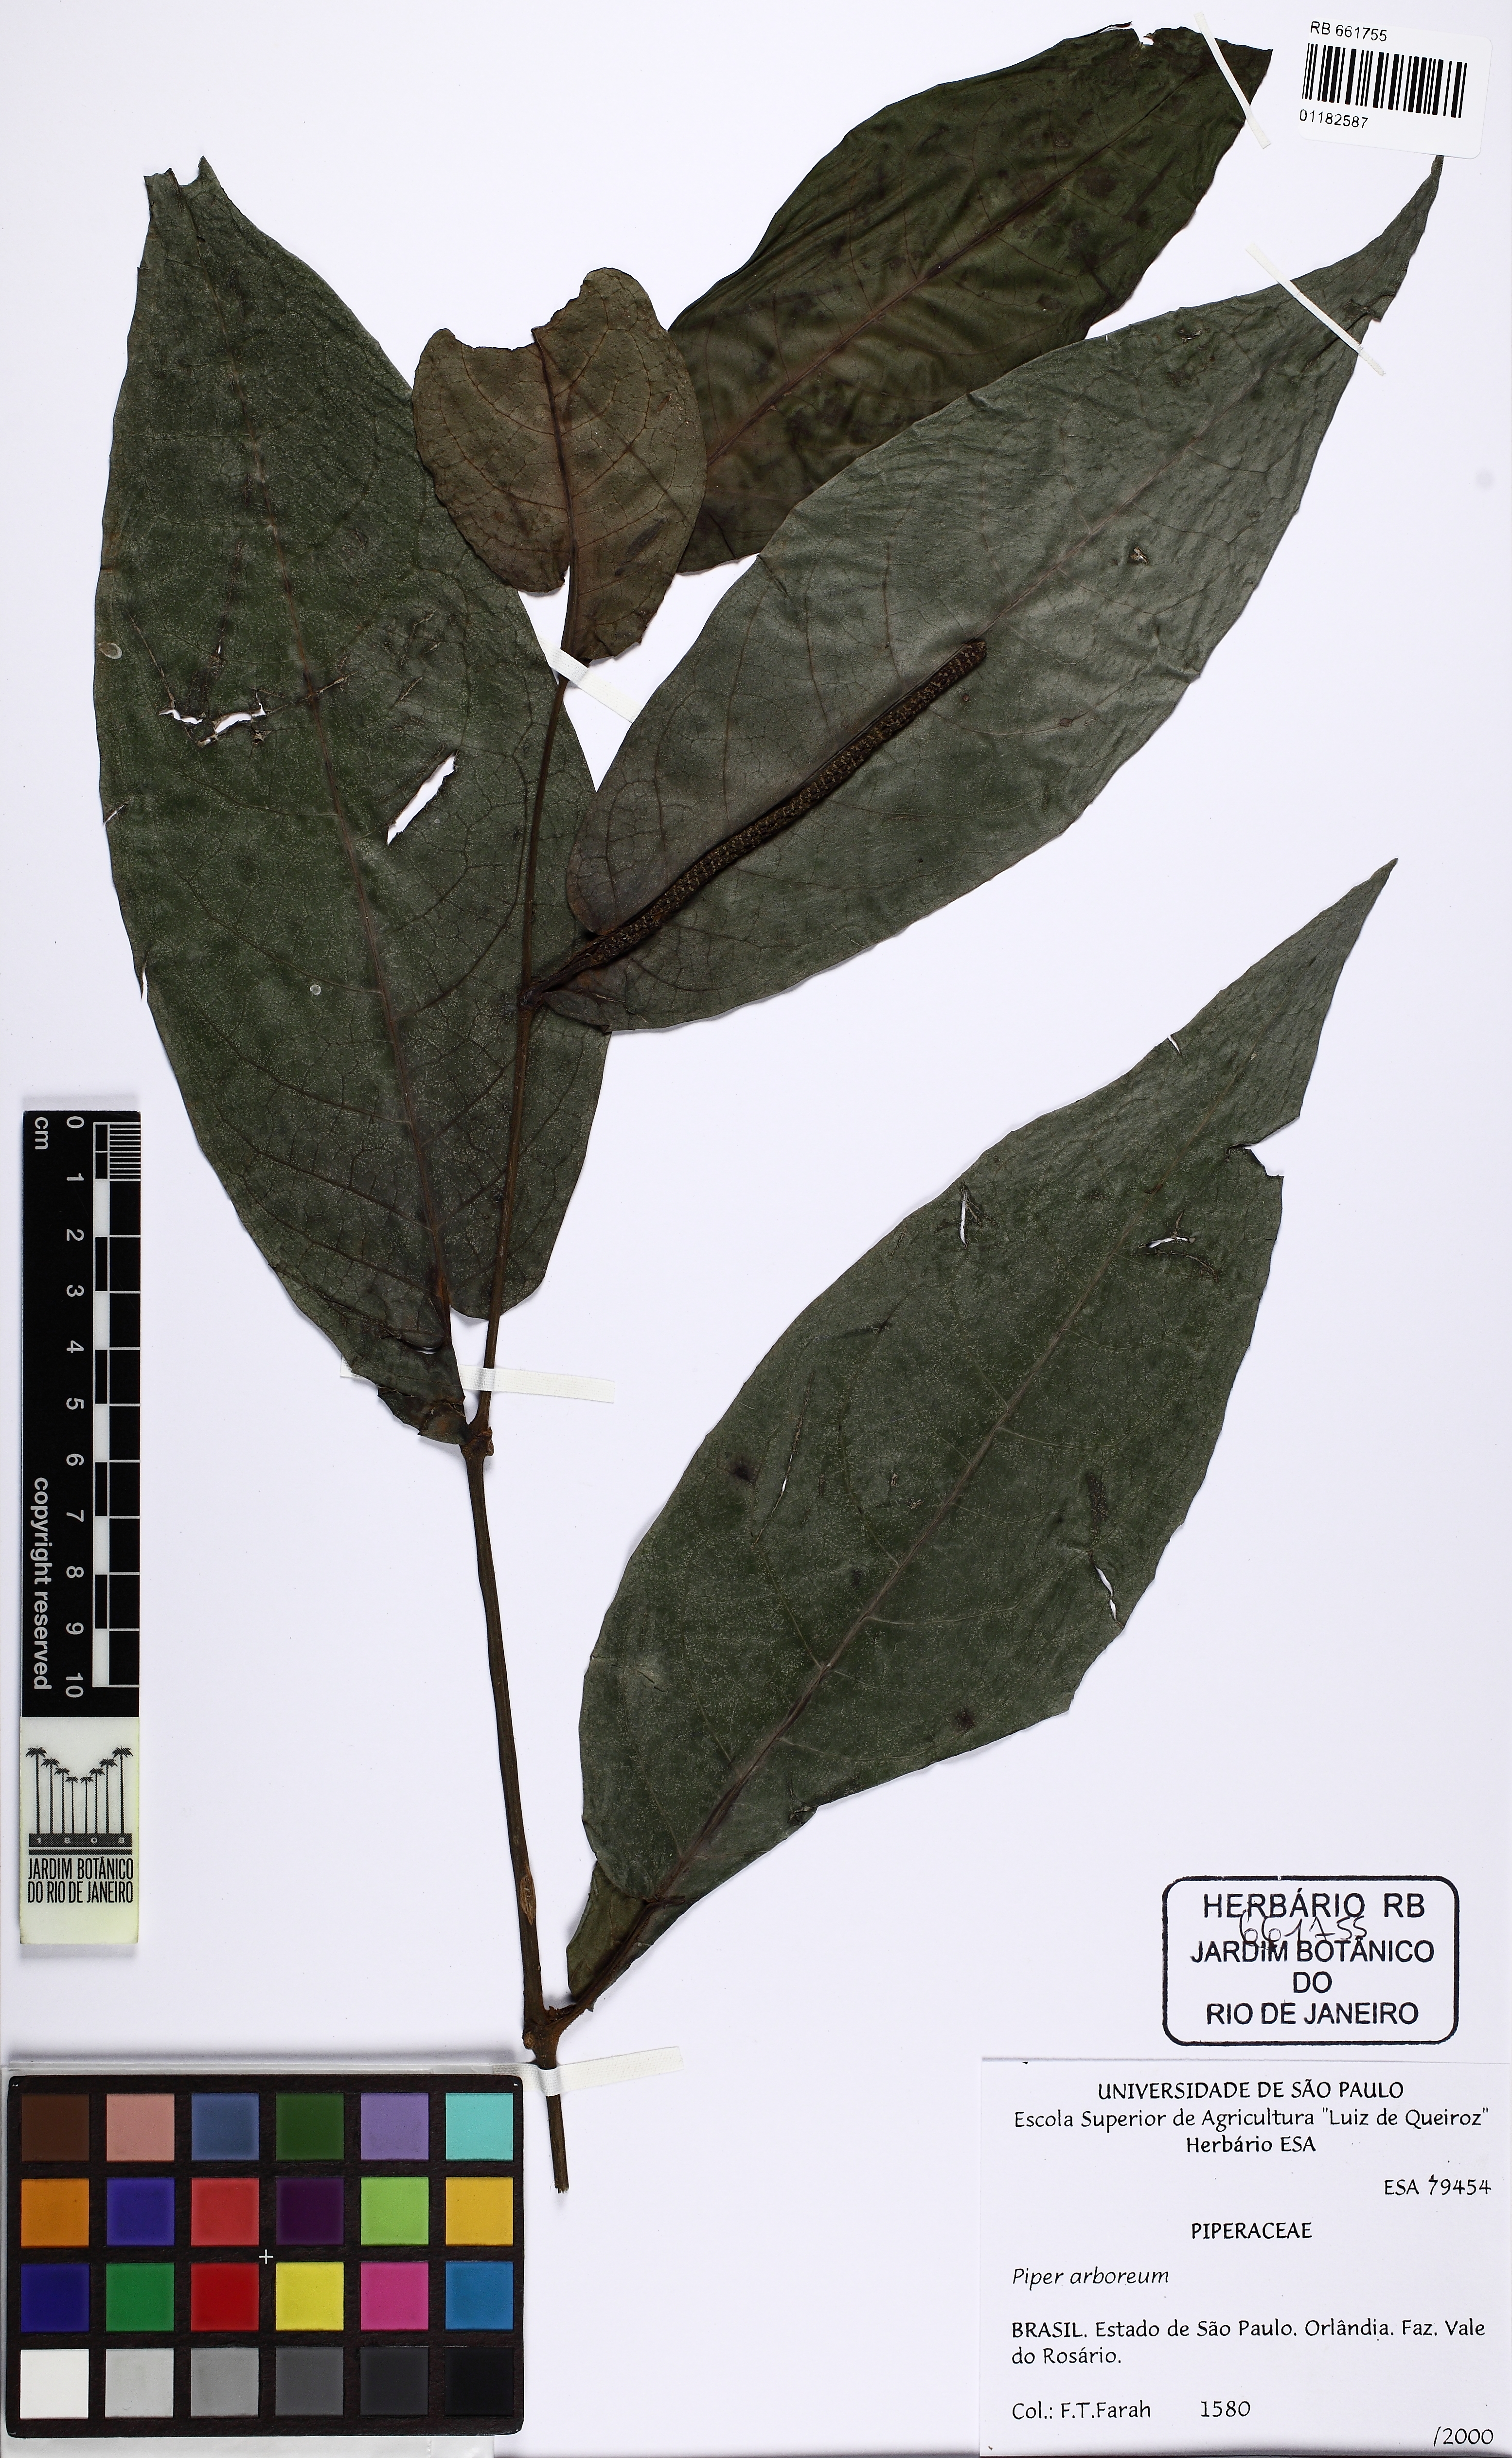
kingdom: Plantae
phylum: Tracheophyta
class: Magnoliopsida
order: Piperales
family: Piperaceae
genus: Piper
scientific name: Piper arboreum
